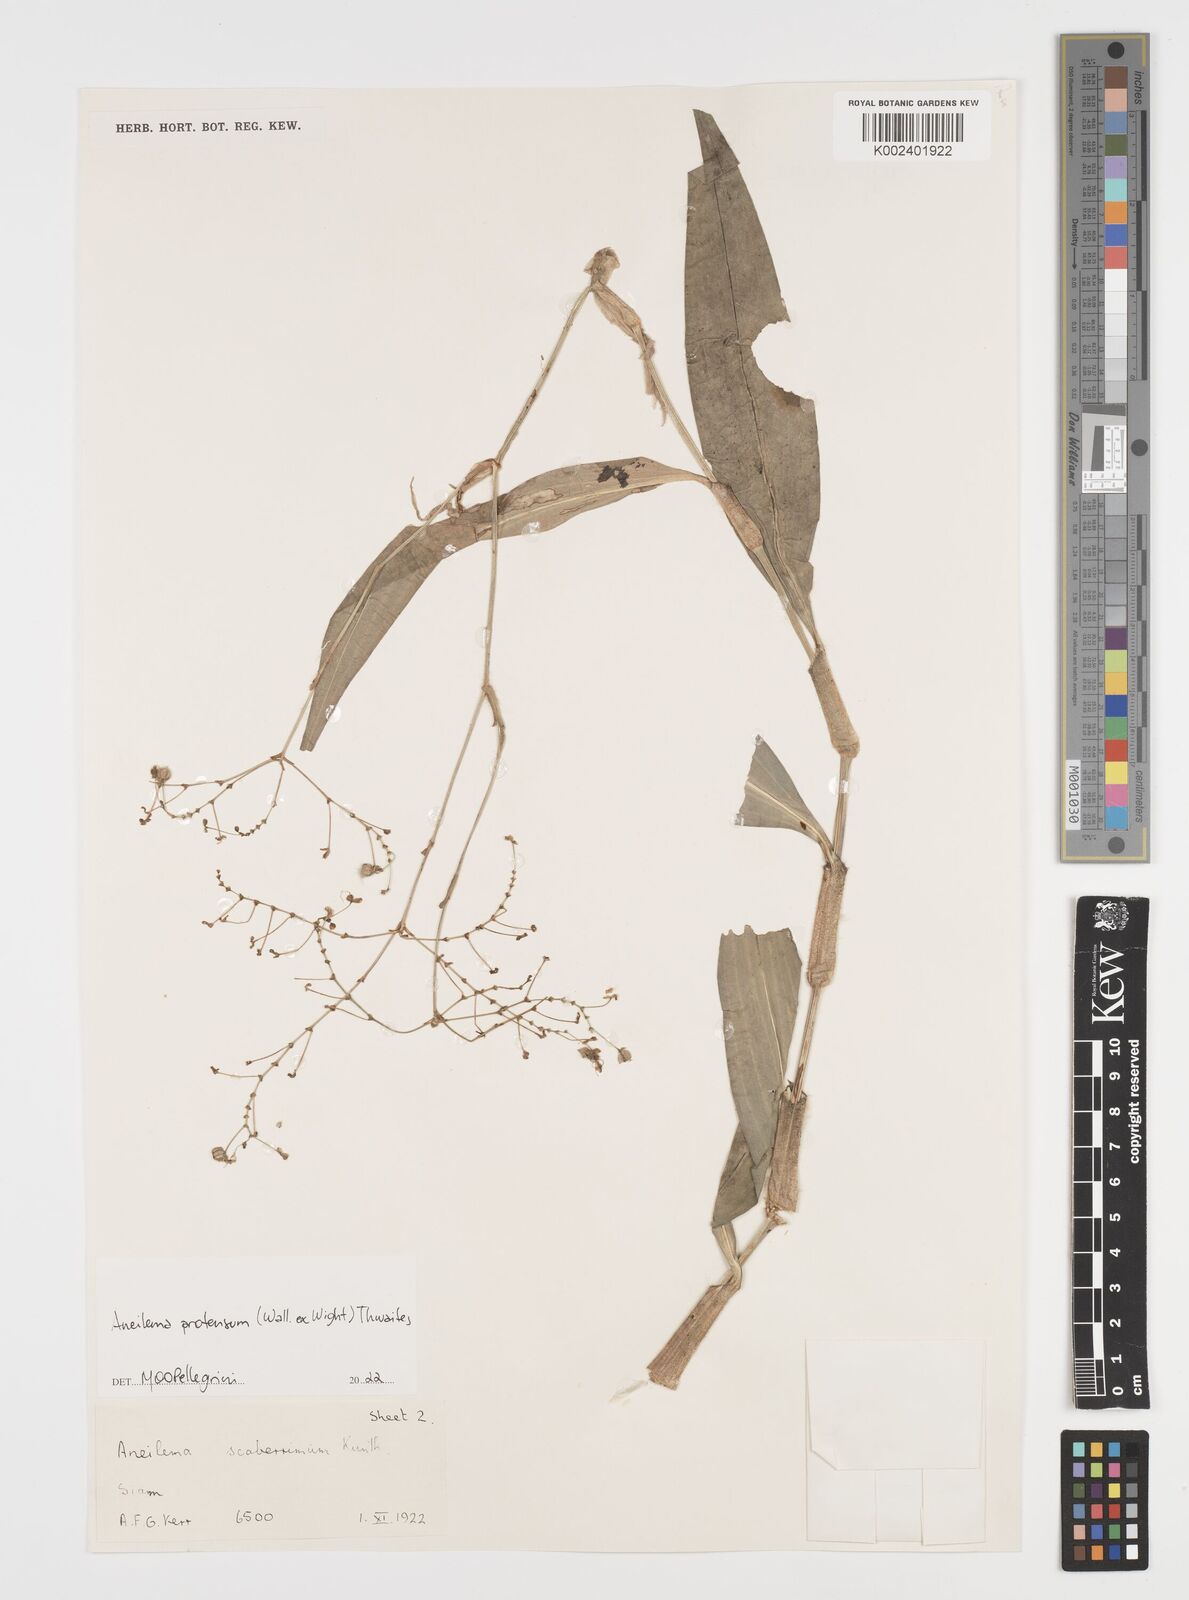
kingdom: Plantae
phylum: Tracheophyta
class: Liliopsida
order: Commelinales
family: Commelinaceae
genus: Rhopalephora
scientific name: Rhopalephora
